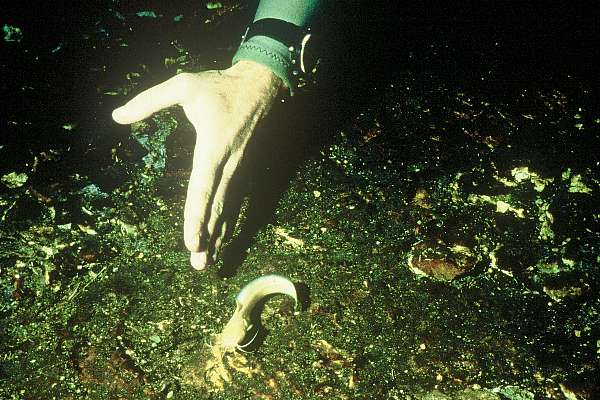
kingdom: Animalia
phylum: Chordata
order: Siluriformes
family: Clariidae
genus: Clarias
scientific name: Clarias cavernicola
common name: Cave catfish
